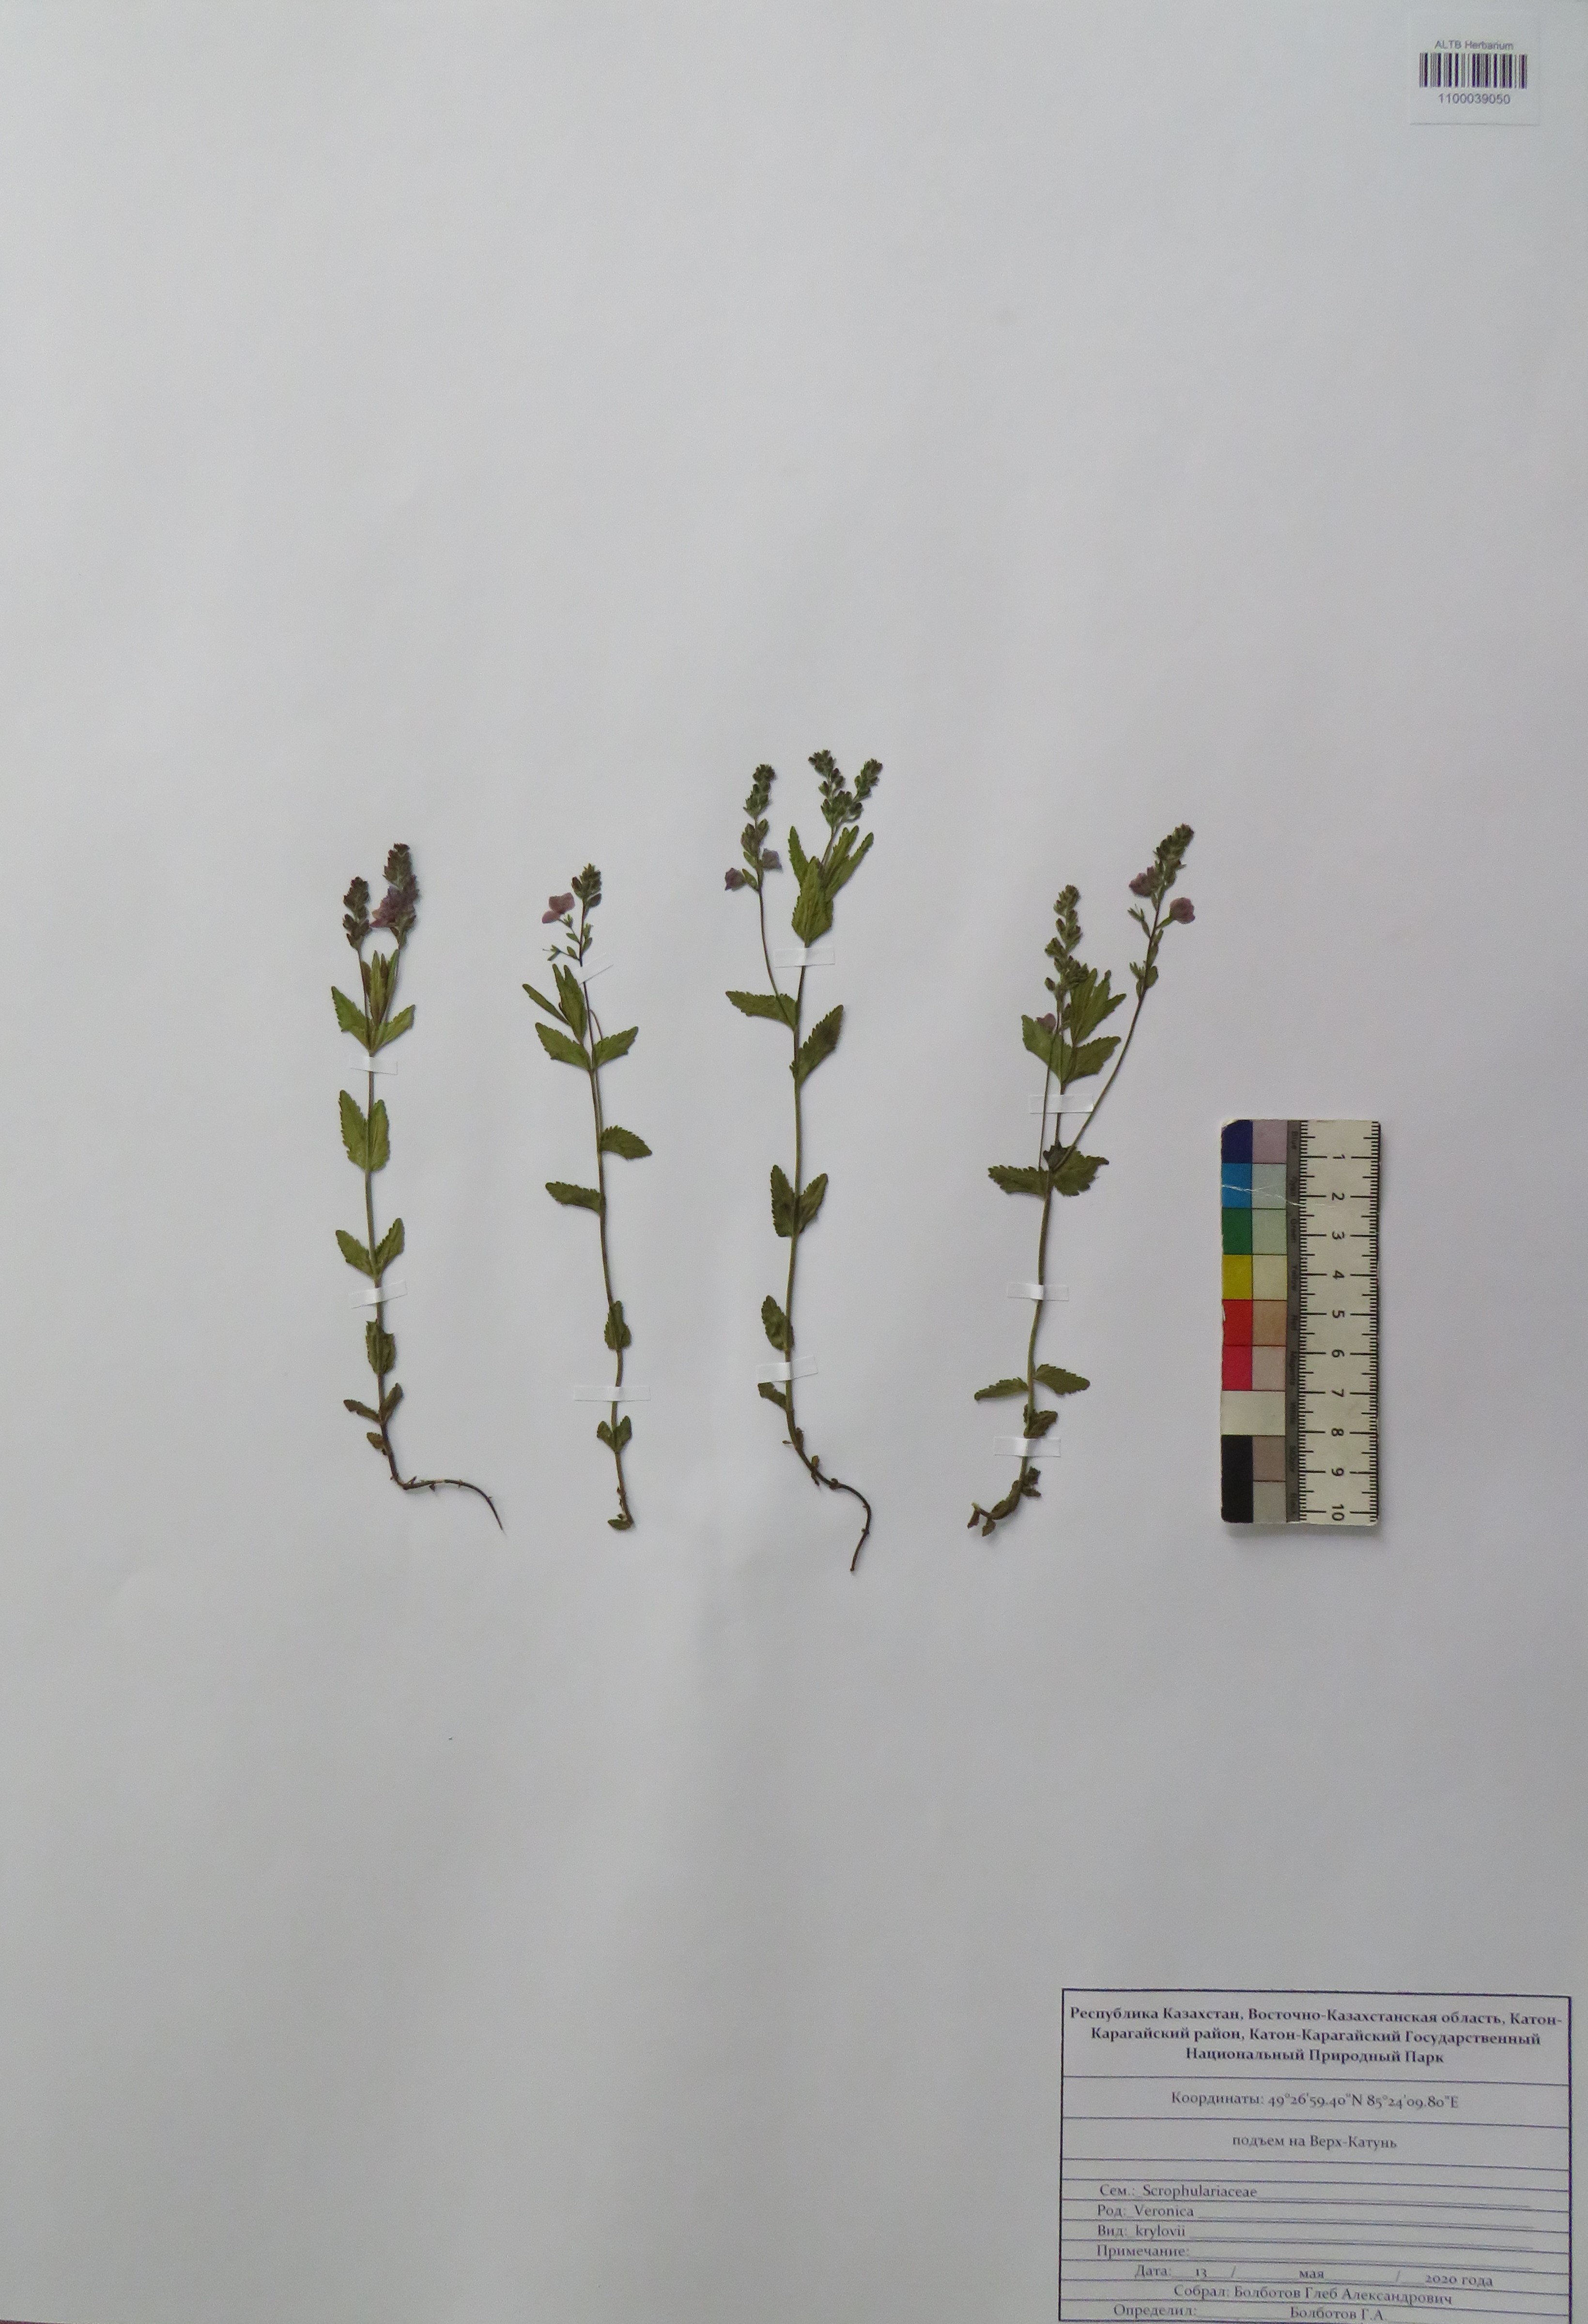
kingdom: Plantae
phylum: Tracheophyta
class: Magnoliopsida
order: Lamiales
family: Plantaginaceae
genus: Veronica
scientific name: Veronica krylovii
